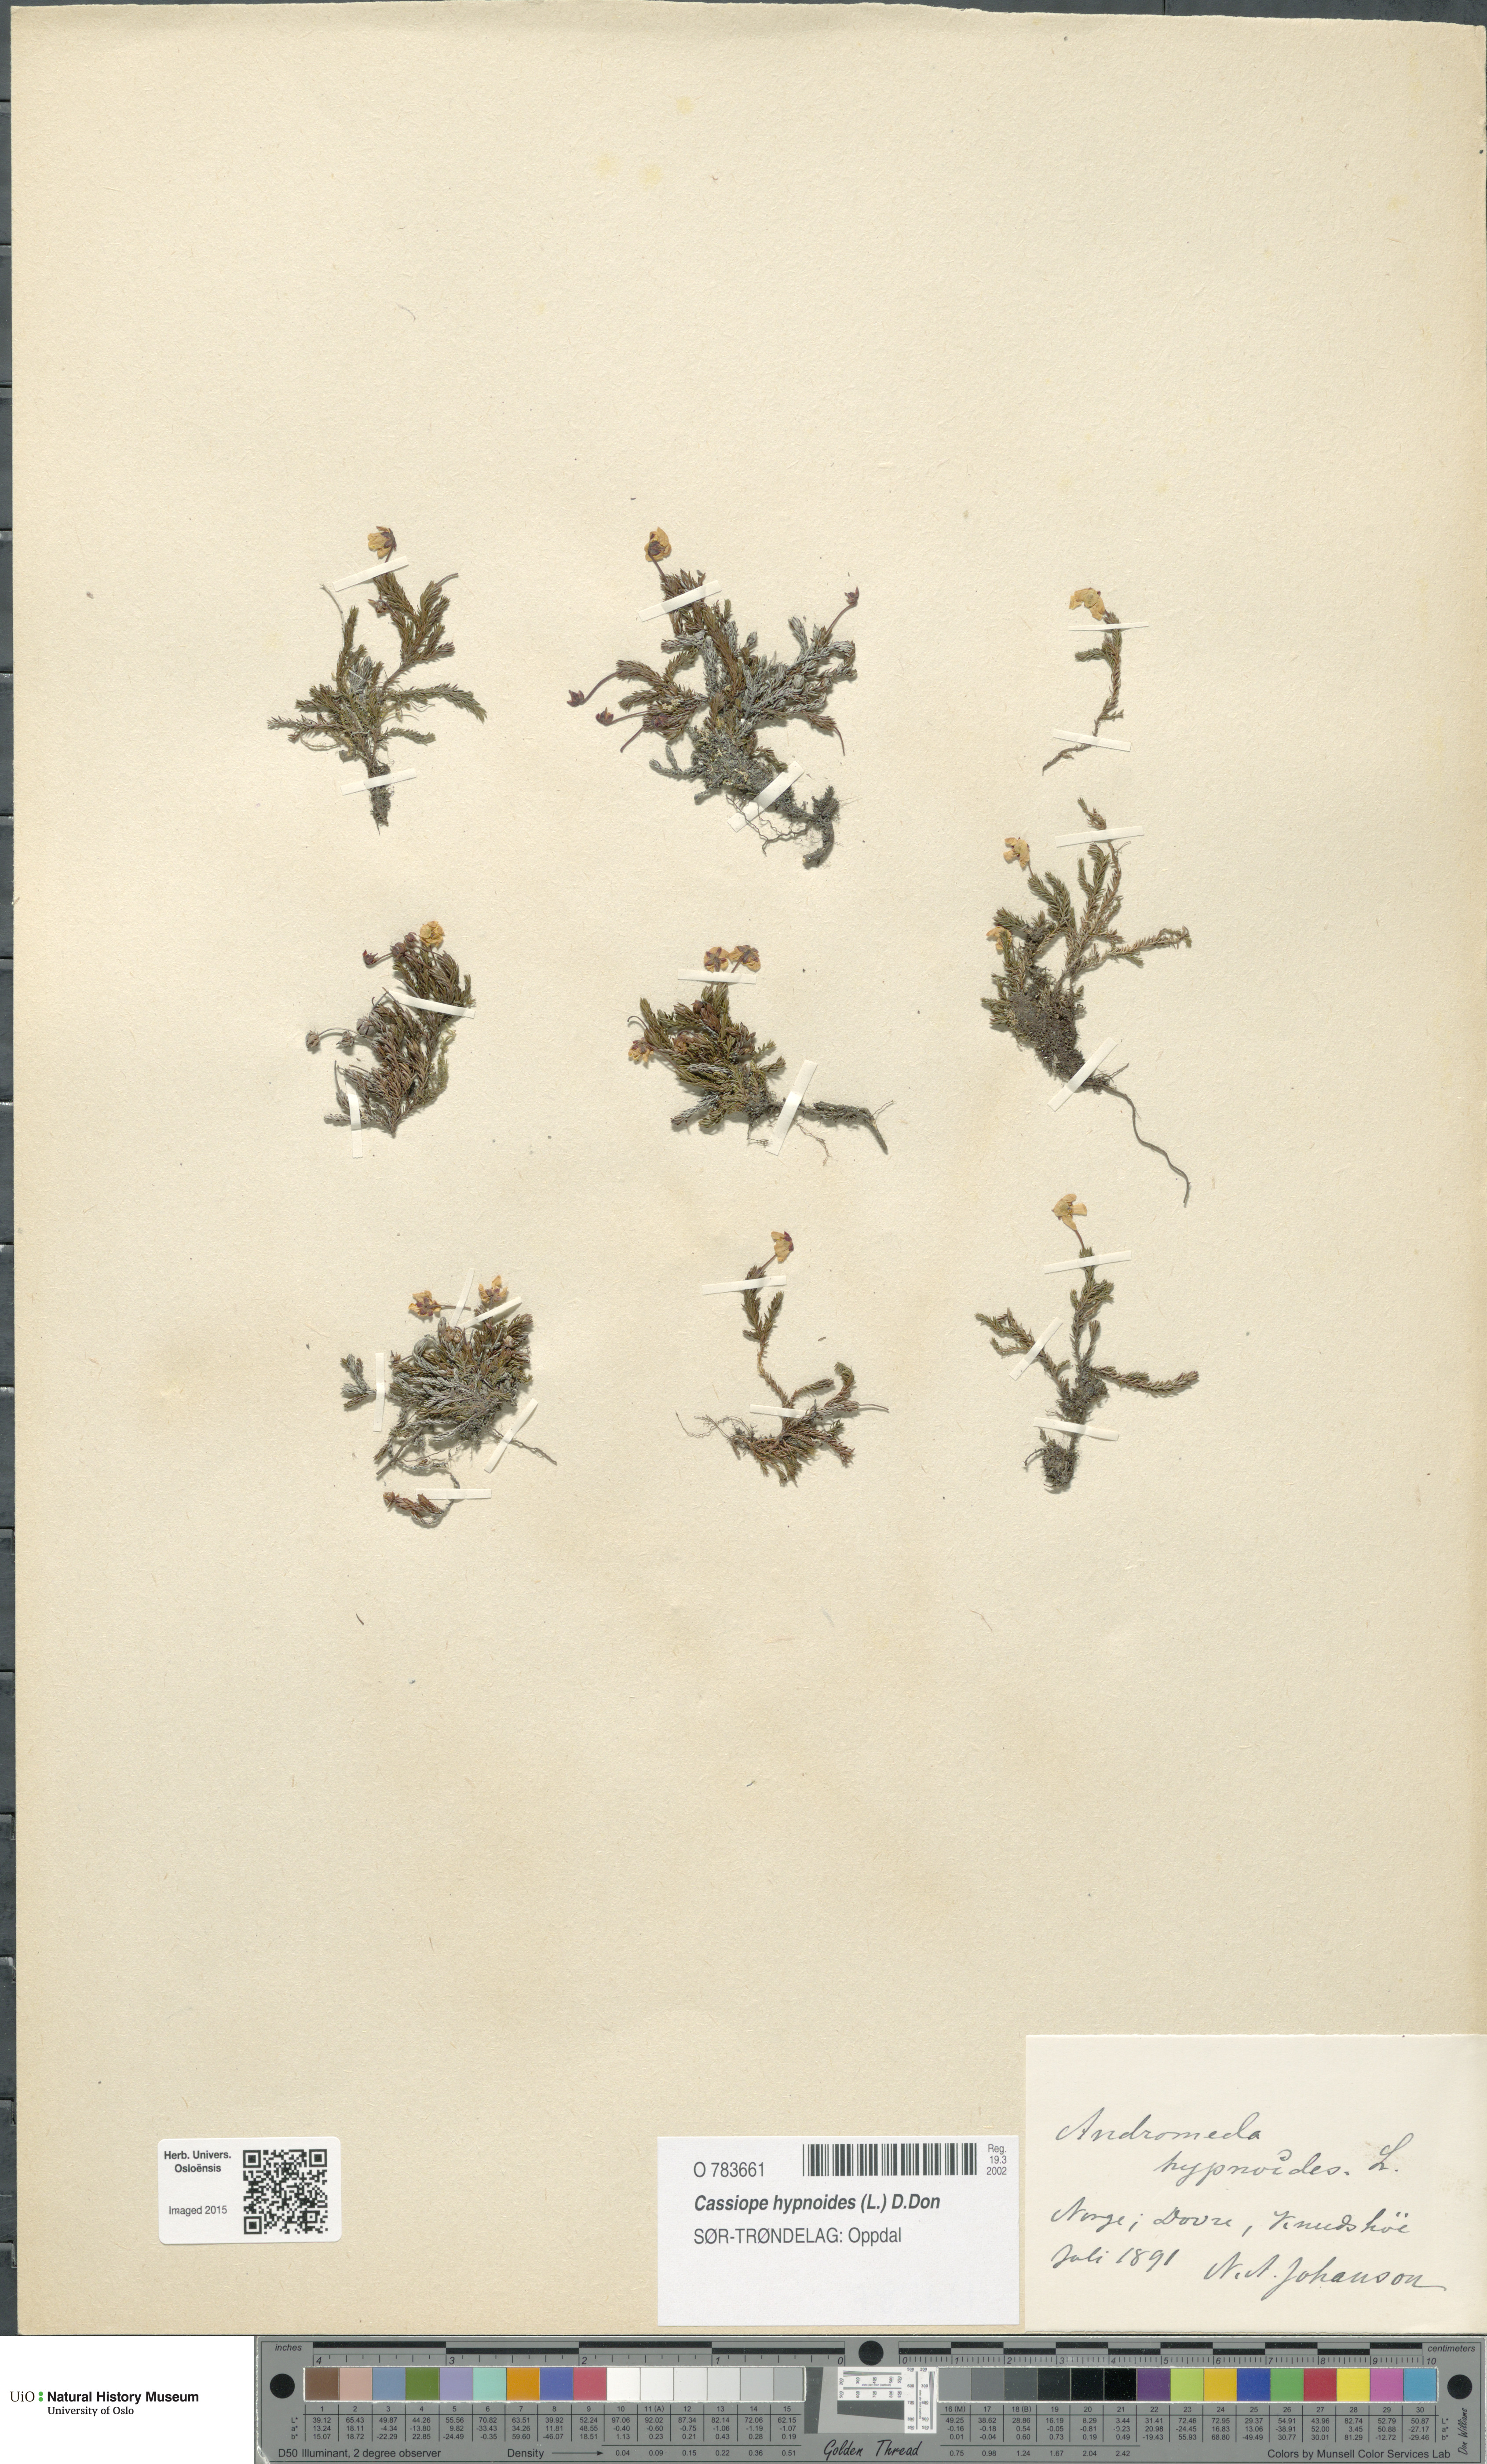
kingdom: Plantae
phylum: Tracheophyta
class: Magnoliopsida
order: Ericales
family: Ericaceae
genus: Harrimanella
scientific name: Harrimanella hypnoides
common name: Moss bell heather
